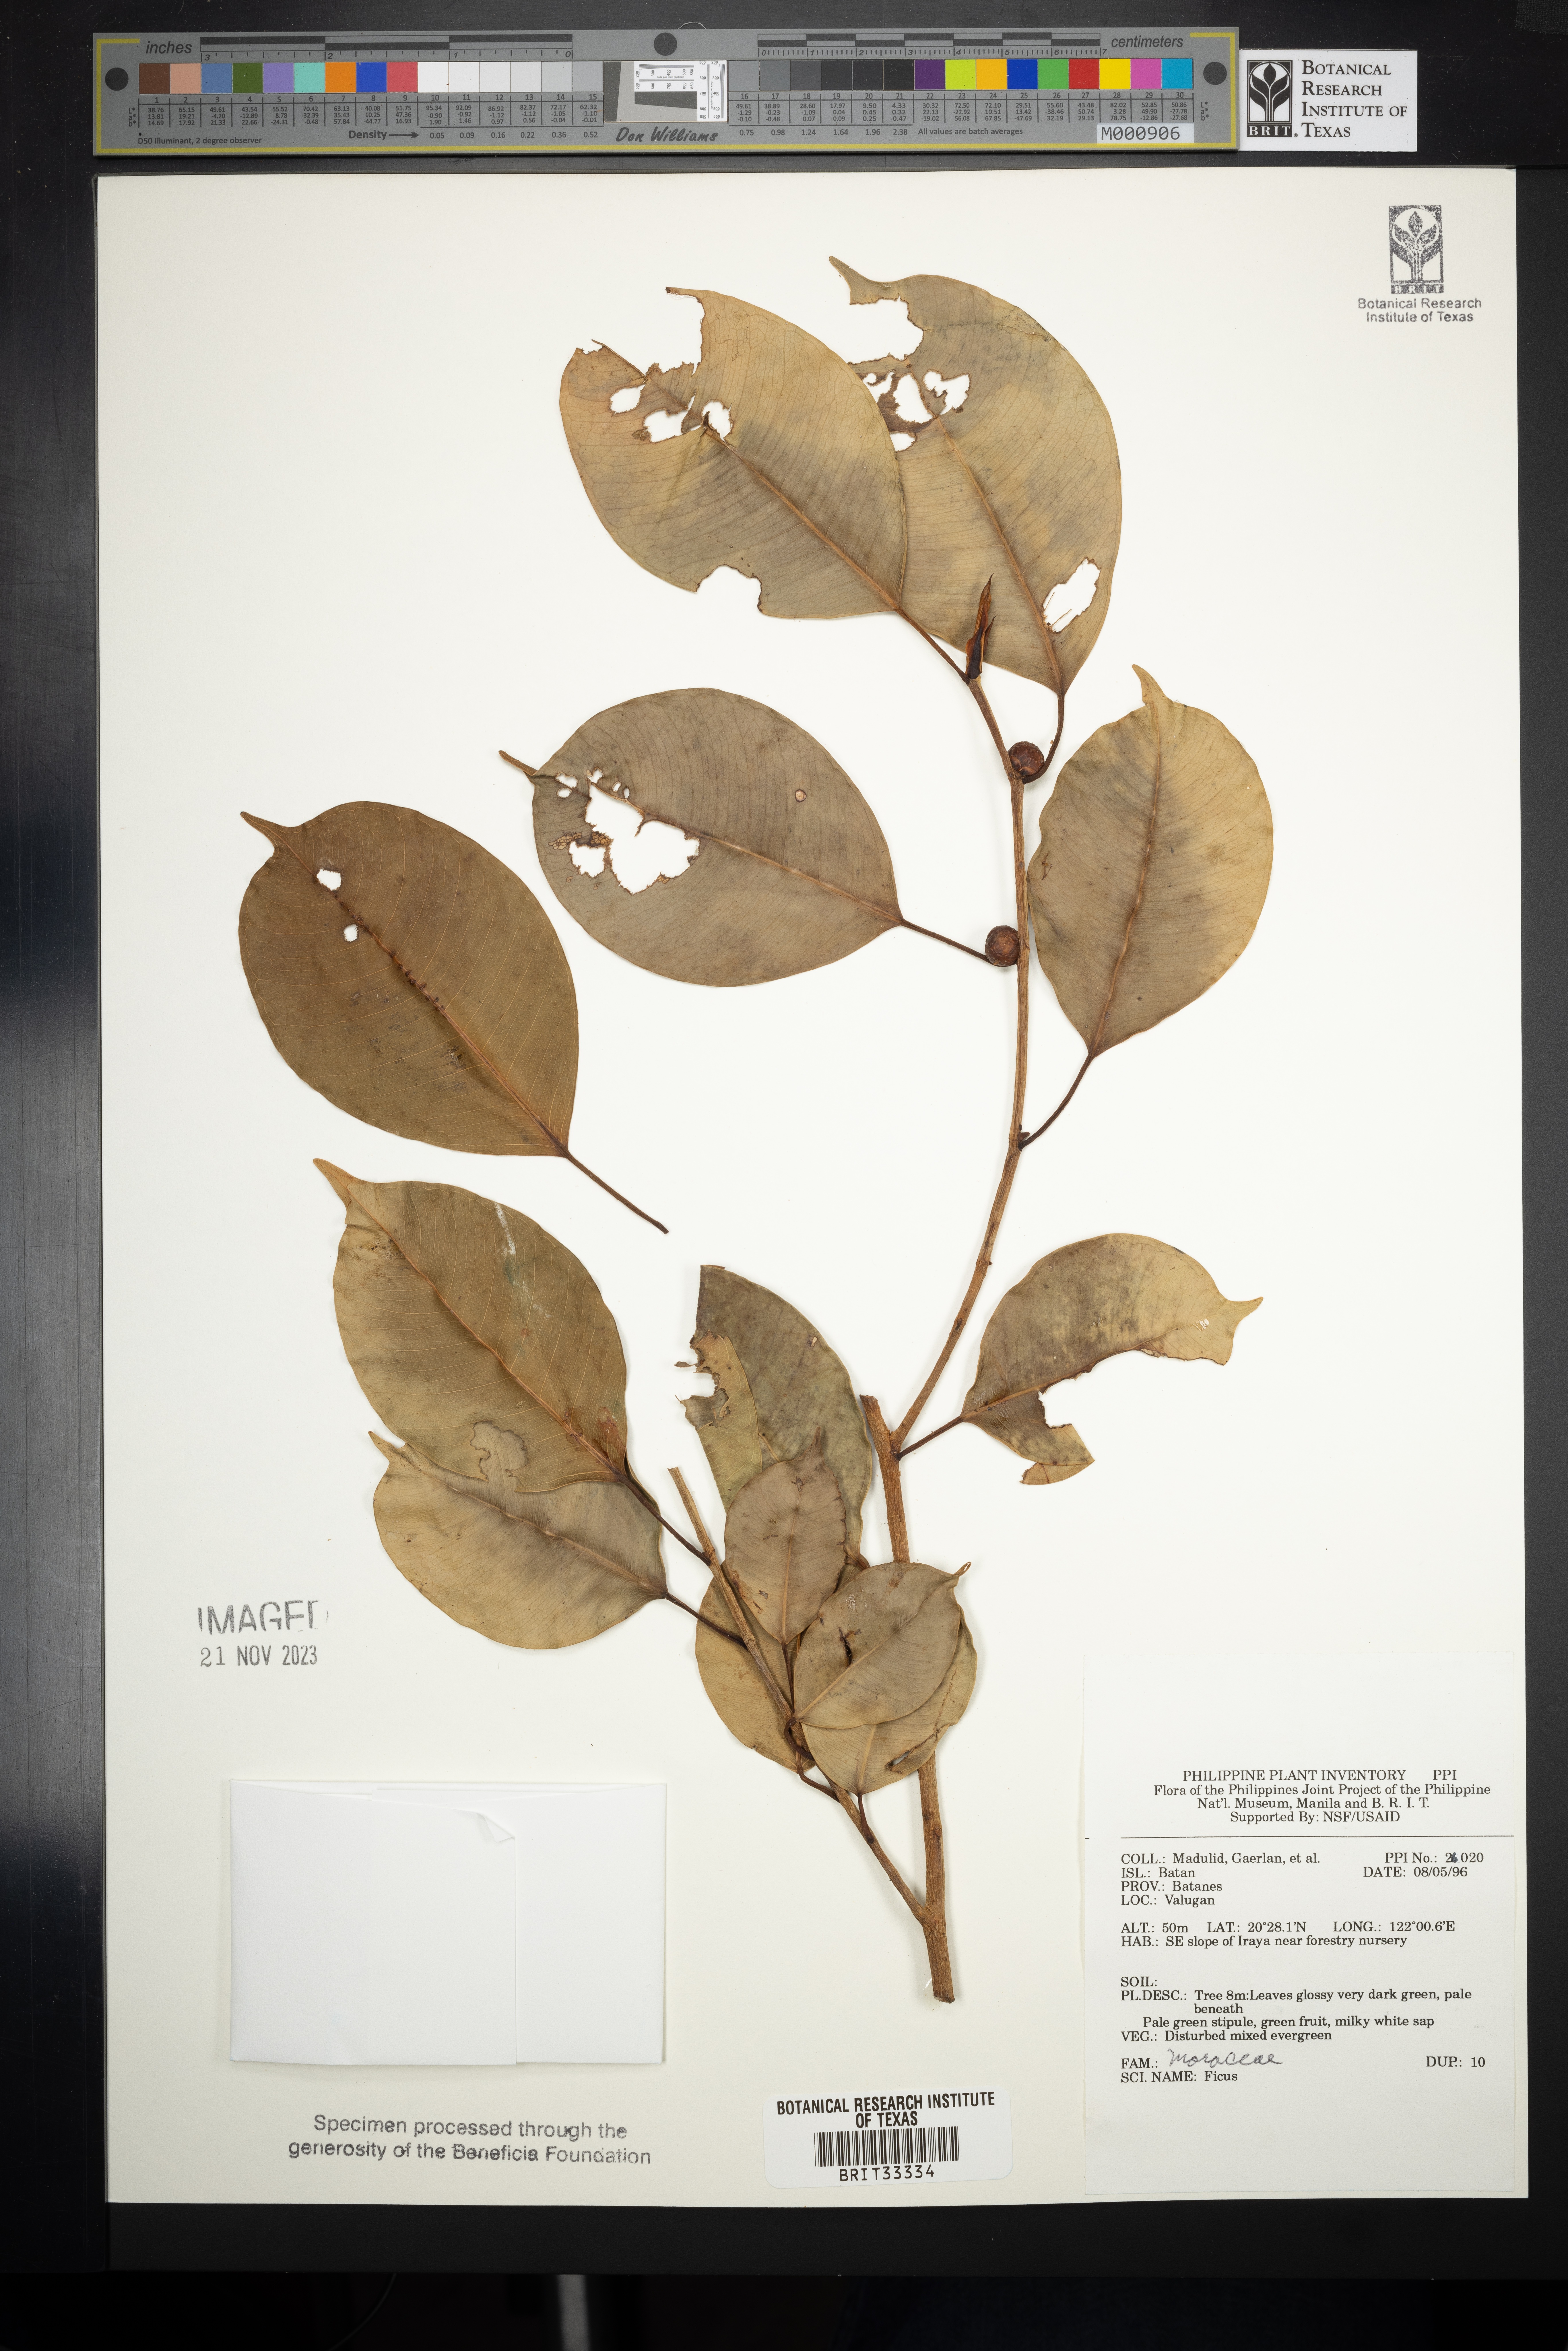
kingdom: Plantae
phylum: Tracheophyta
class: Magnoliopsida
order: Rosales
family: Moraceae
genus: Ficus
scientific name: Ficus
